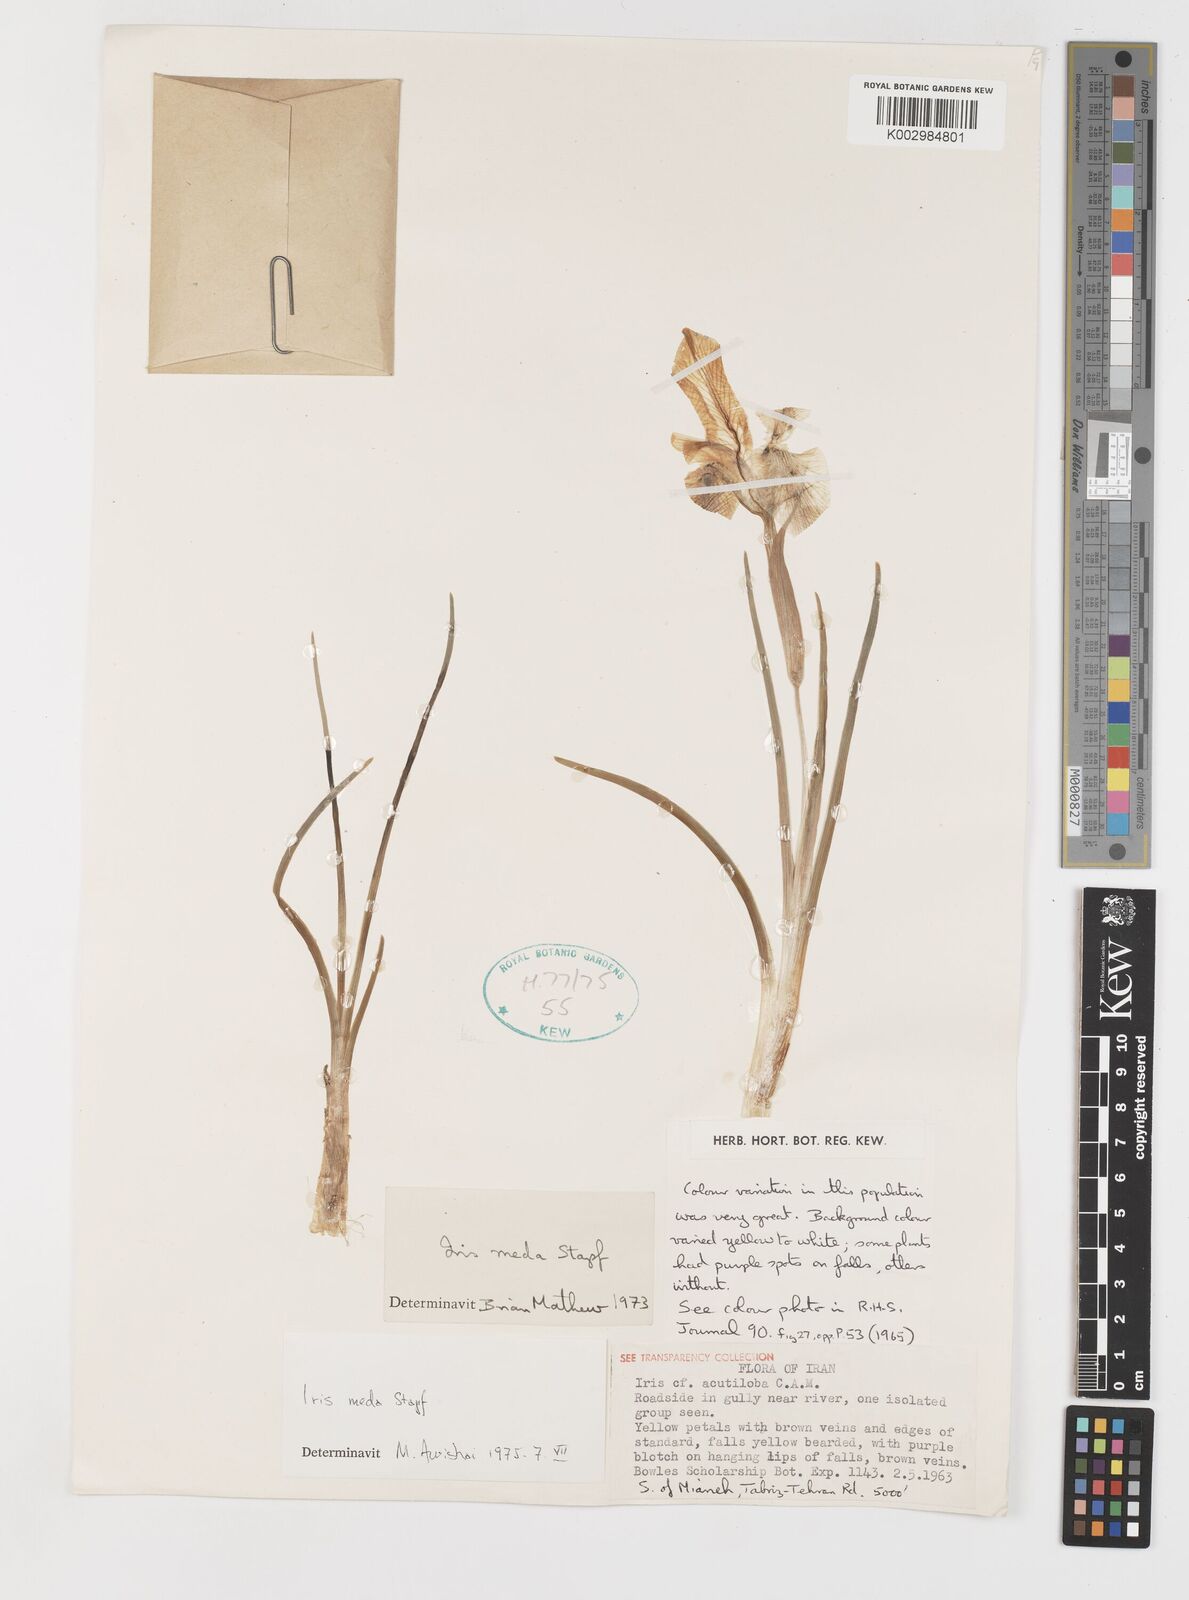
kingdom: Plantae
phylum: Tracheophyta
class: Liliopsida
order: Asparagales
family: Iridaceae
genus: Iris
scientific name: Iris meda
